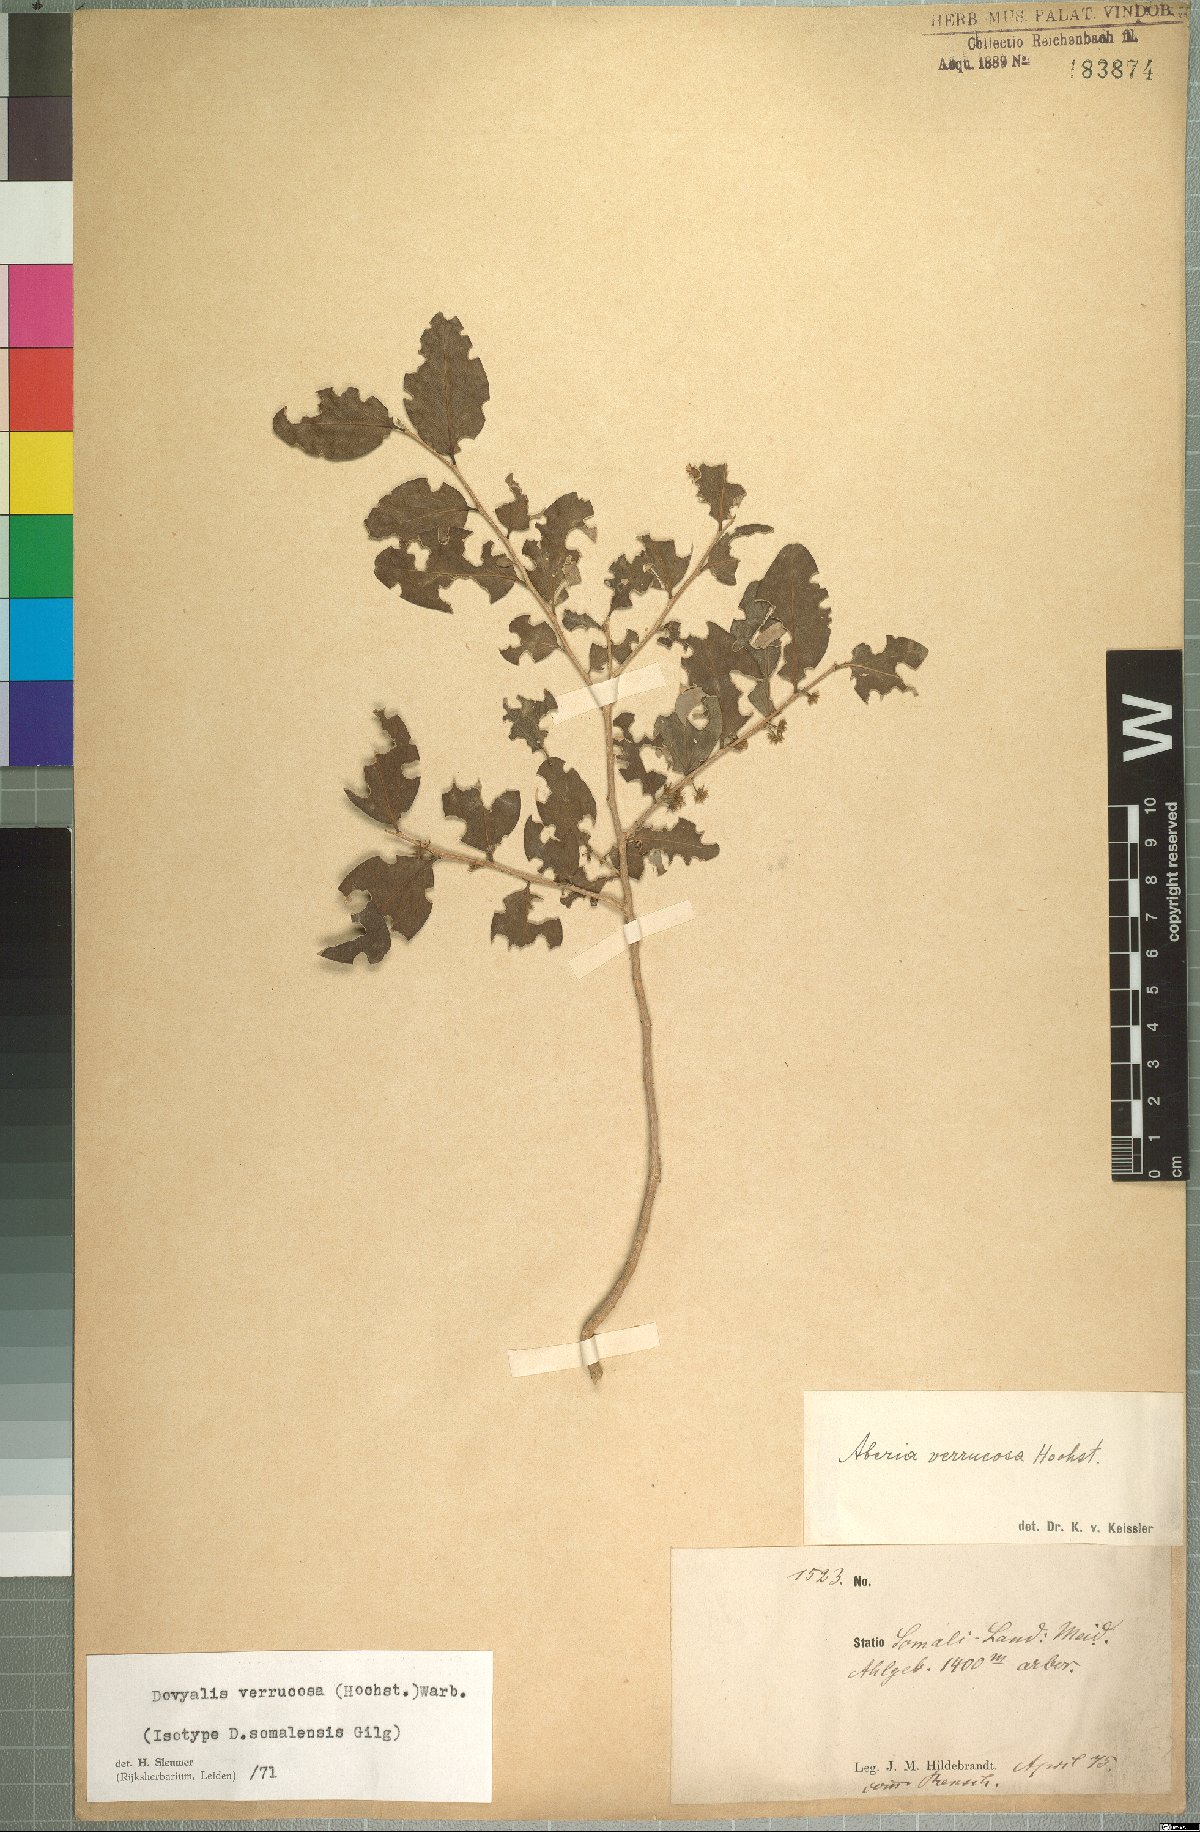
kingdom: Plantae
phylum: Tracheophyta
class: Magnoliopsida
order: Malpighiales
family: Salicaceae
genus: Dovyalis
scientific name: Dovyalis verrucosa
